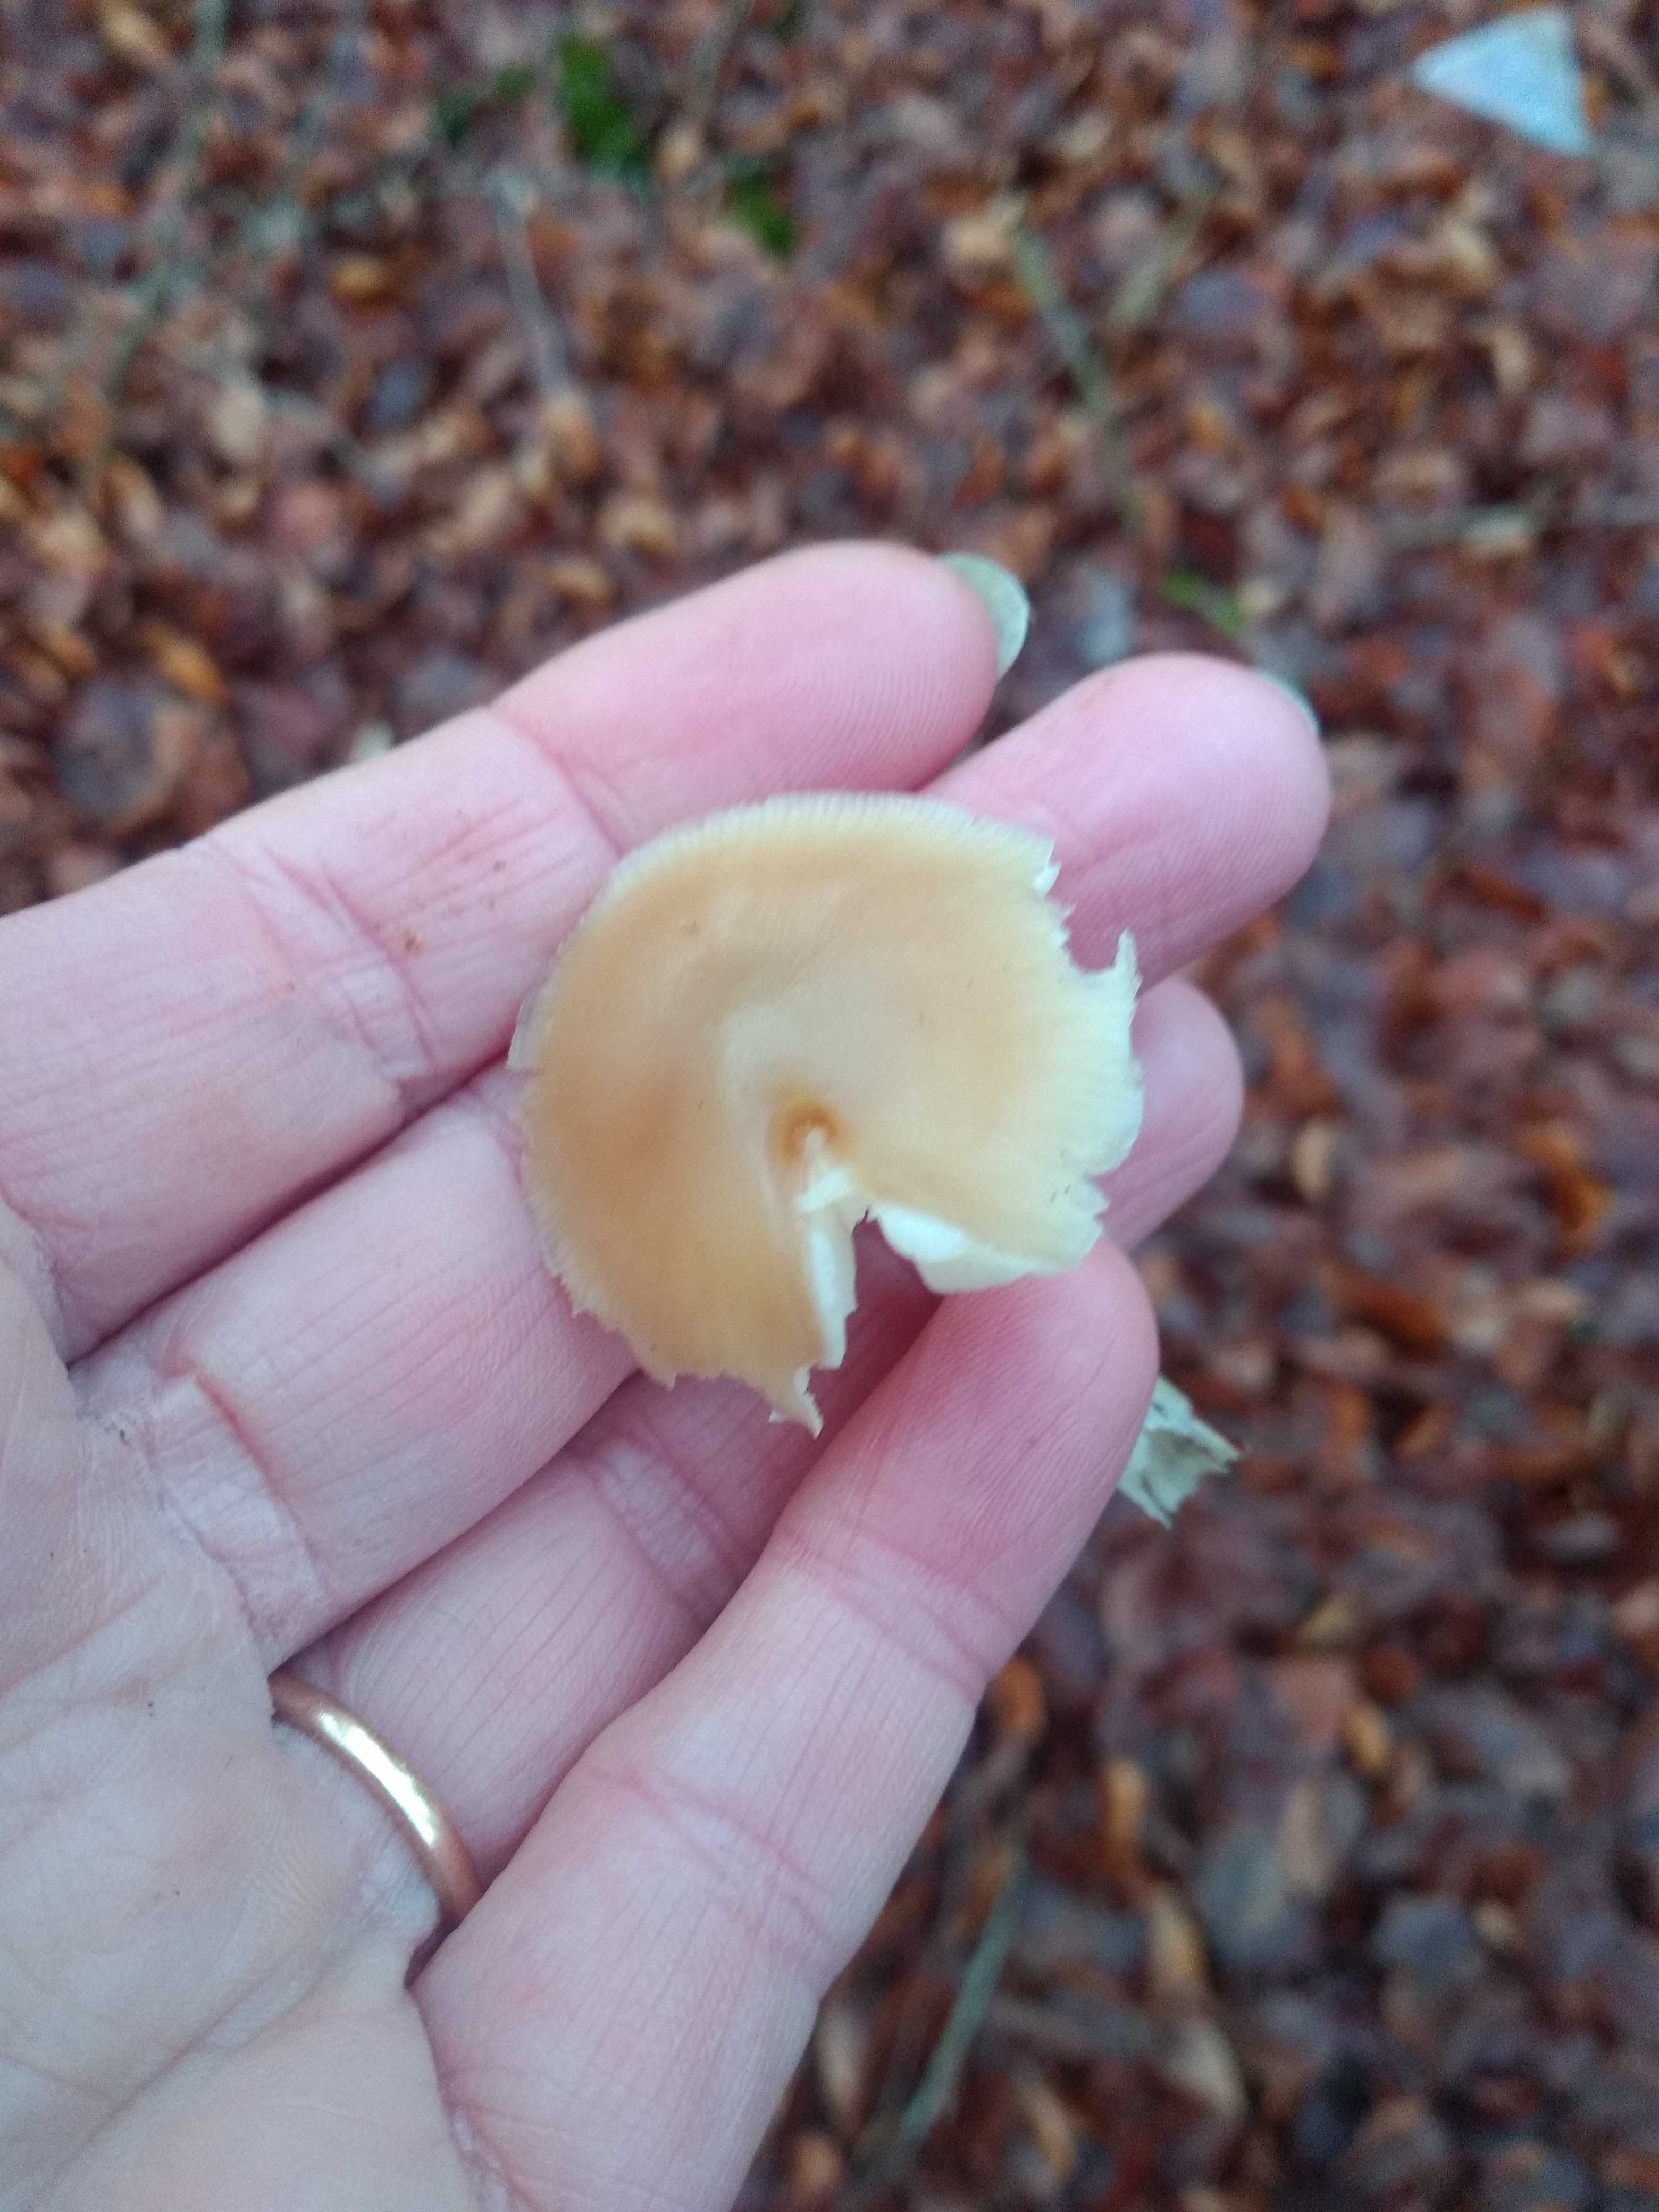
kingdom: Fungi
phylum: Basidiomycota
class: Agaricomycetes
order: Agaricales
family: Omphalotaceae
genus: Rhodocollybia
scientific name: Rhodocollybia asema
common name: horngrå fladhat
